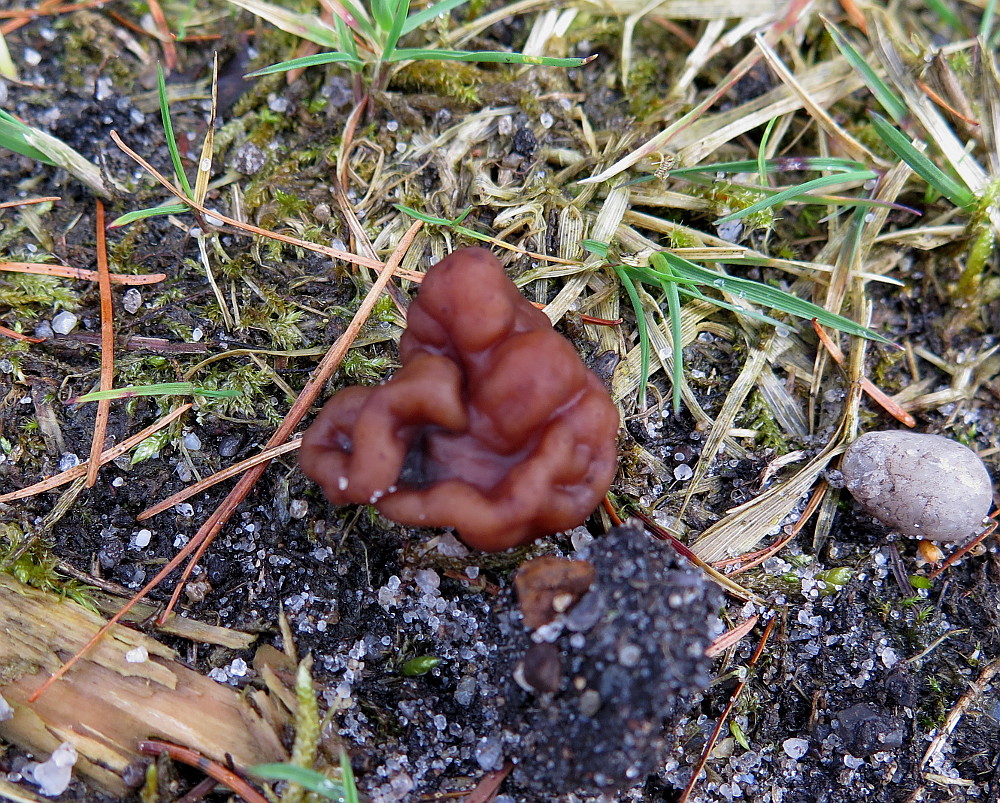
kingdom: Fungi
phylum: Ascomycota
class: Pezizomycetes
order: Pezizales
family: Discinaceae
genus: Gyromitra
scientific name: Gyromitra esculenta
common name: ægte stenmorkel
